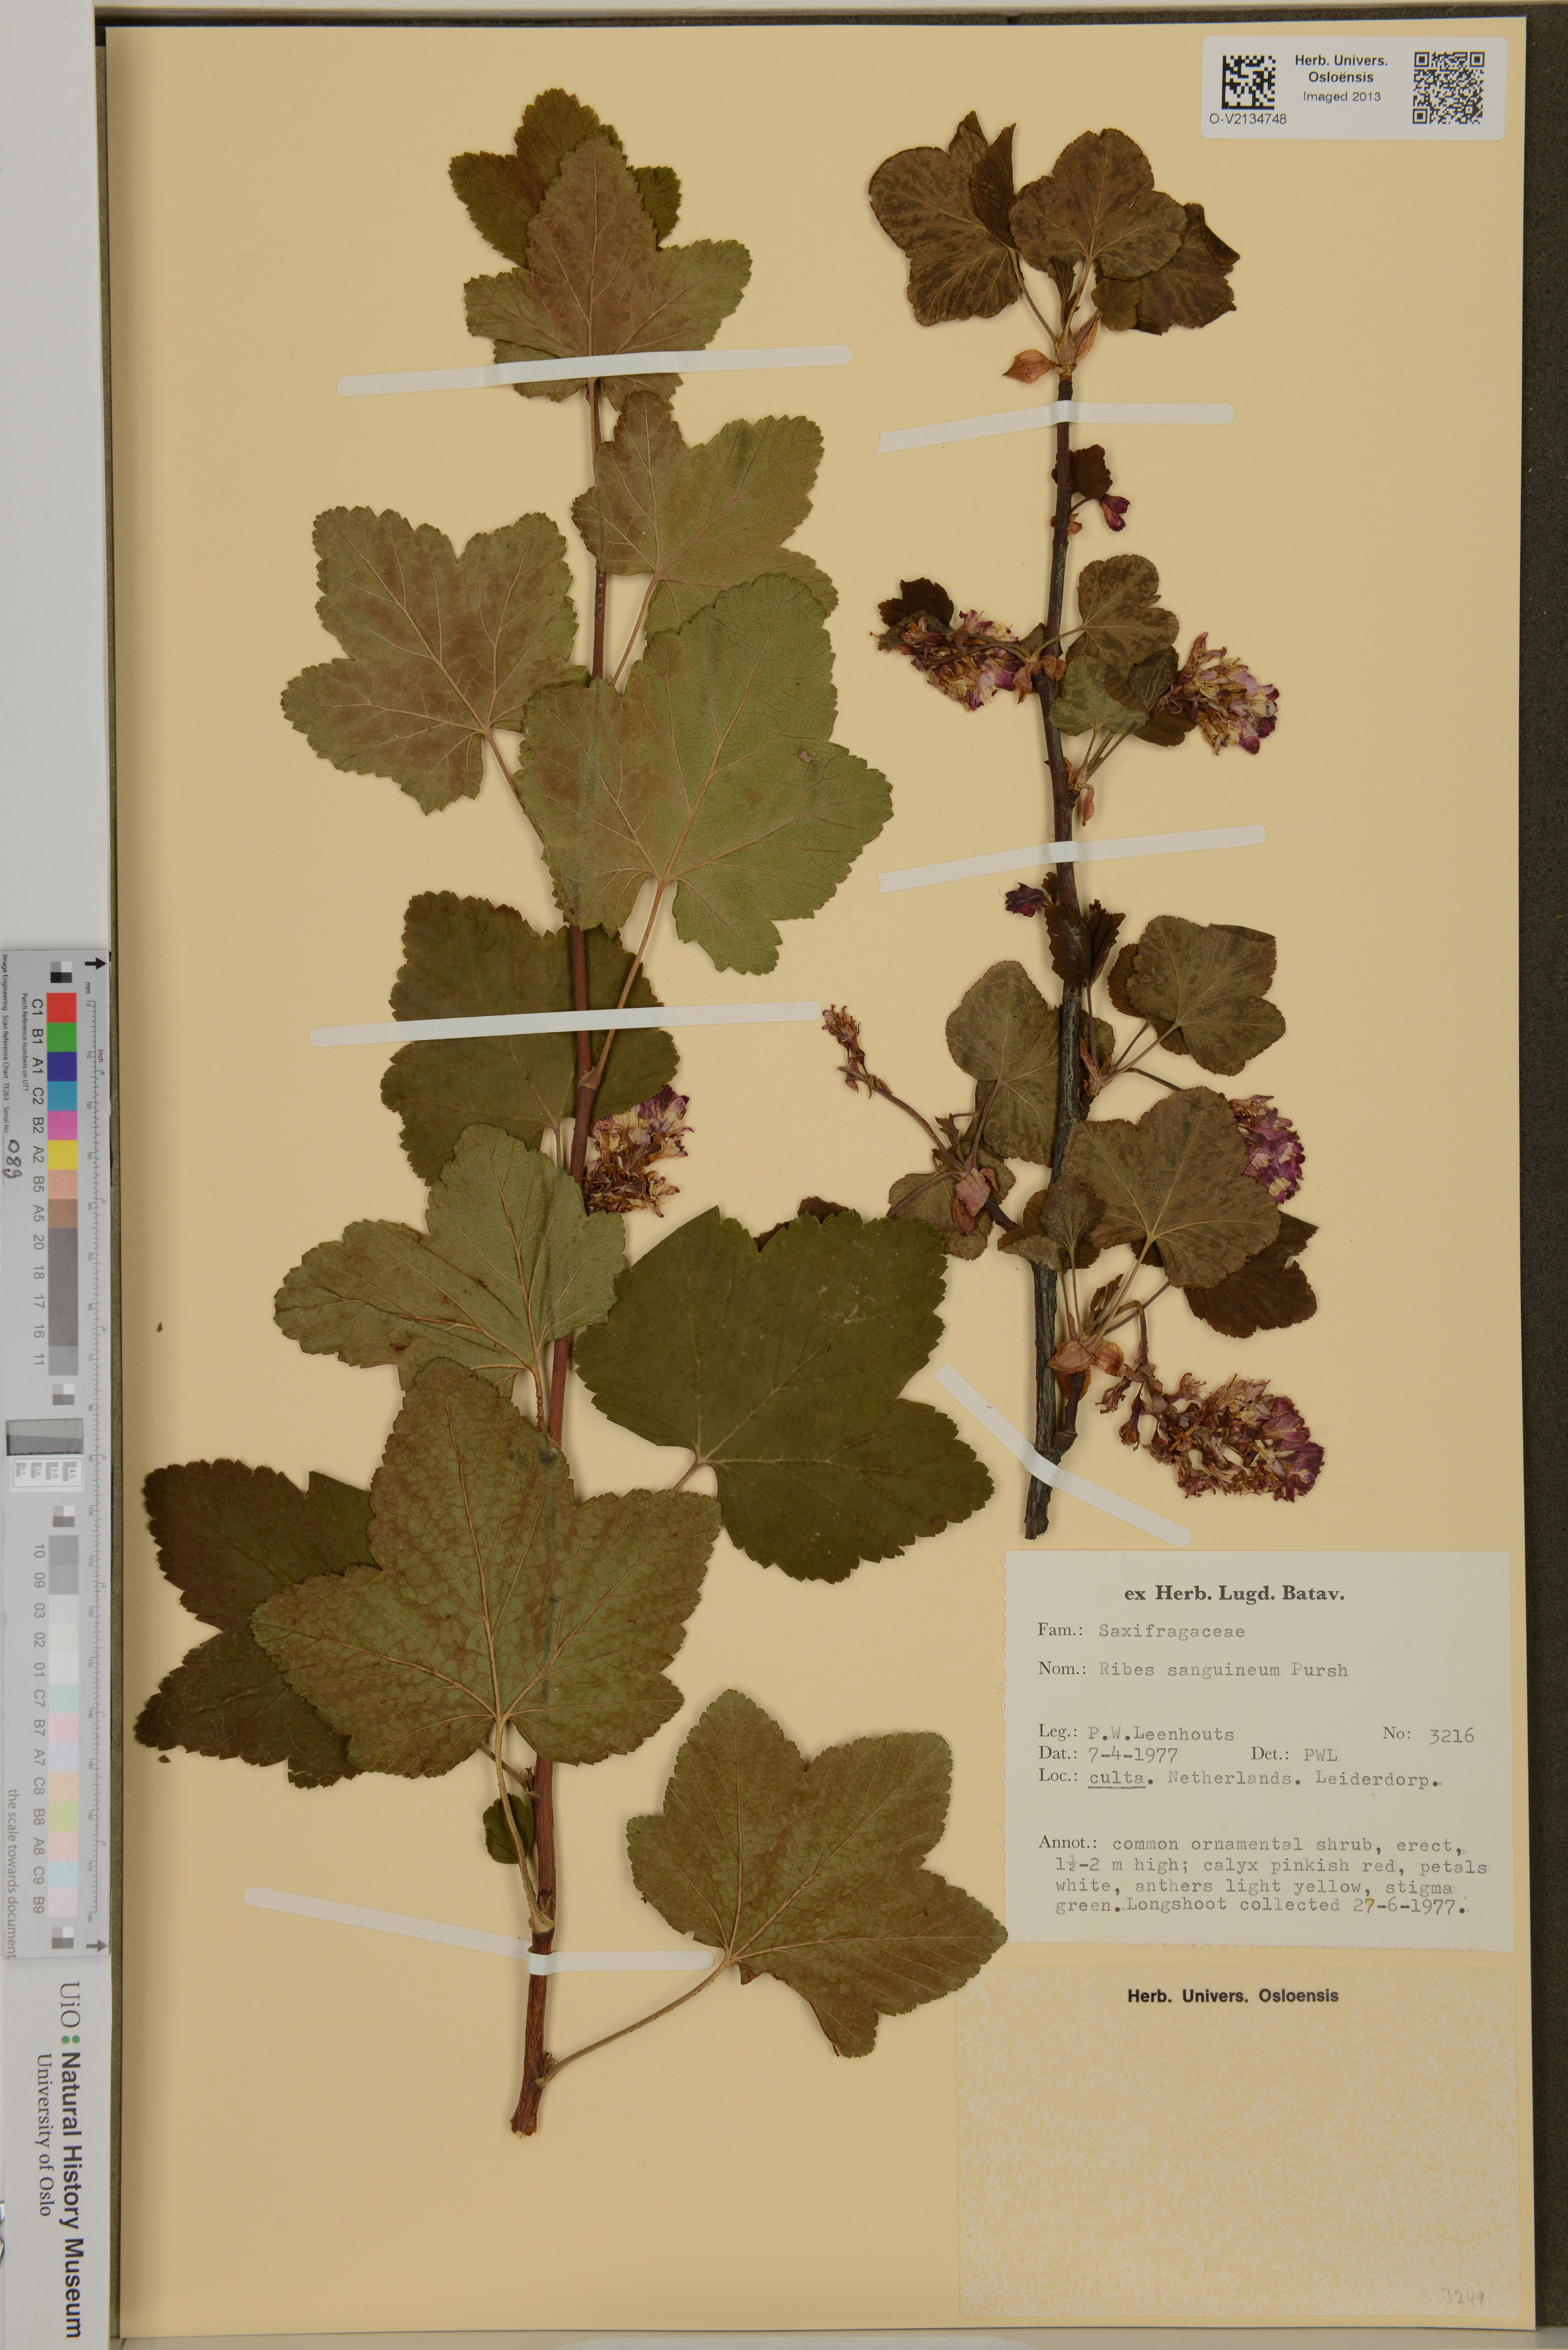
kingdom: Plantae
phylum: Tracheophyta
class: Magnoliopsida
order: Saxifragales
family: Grossulariaceae
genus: Ribes
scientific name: Ribes sanguineum
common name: Flowering currant
